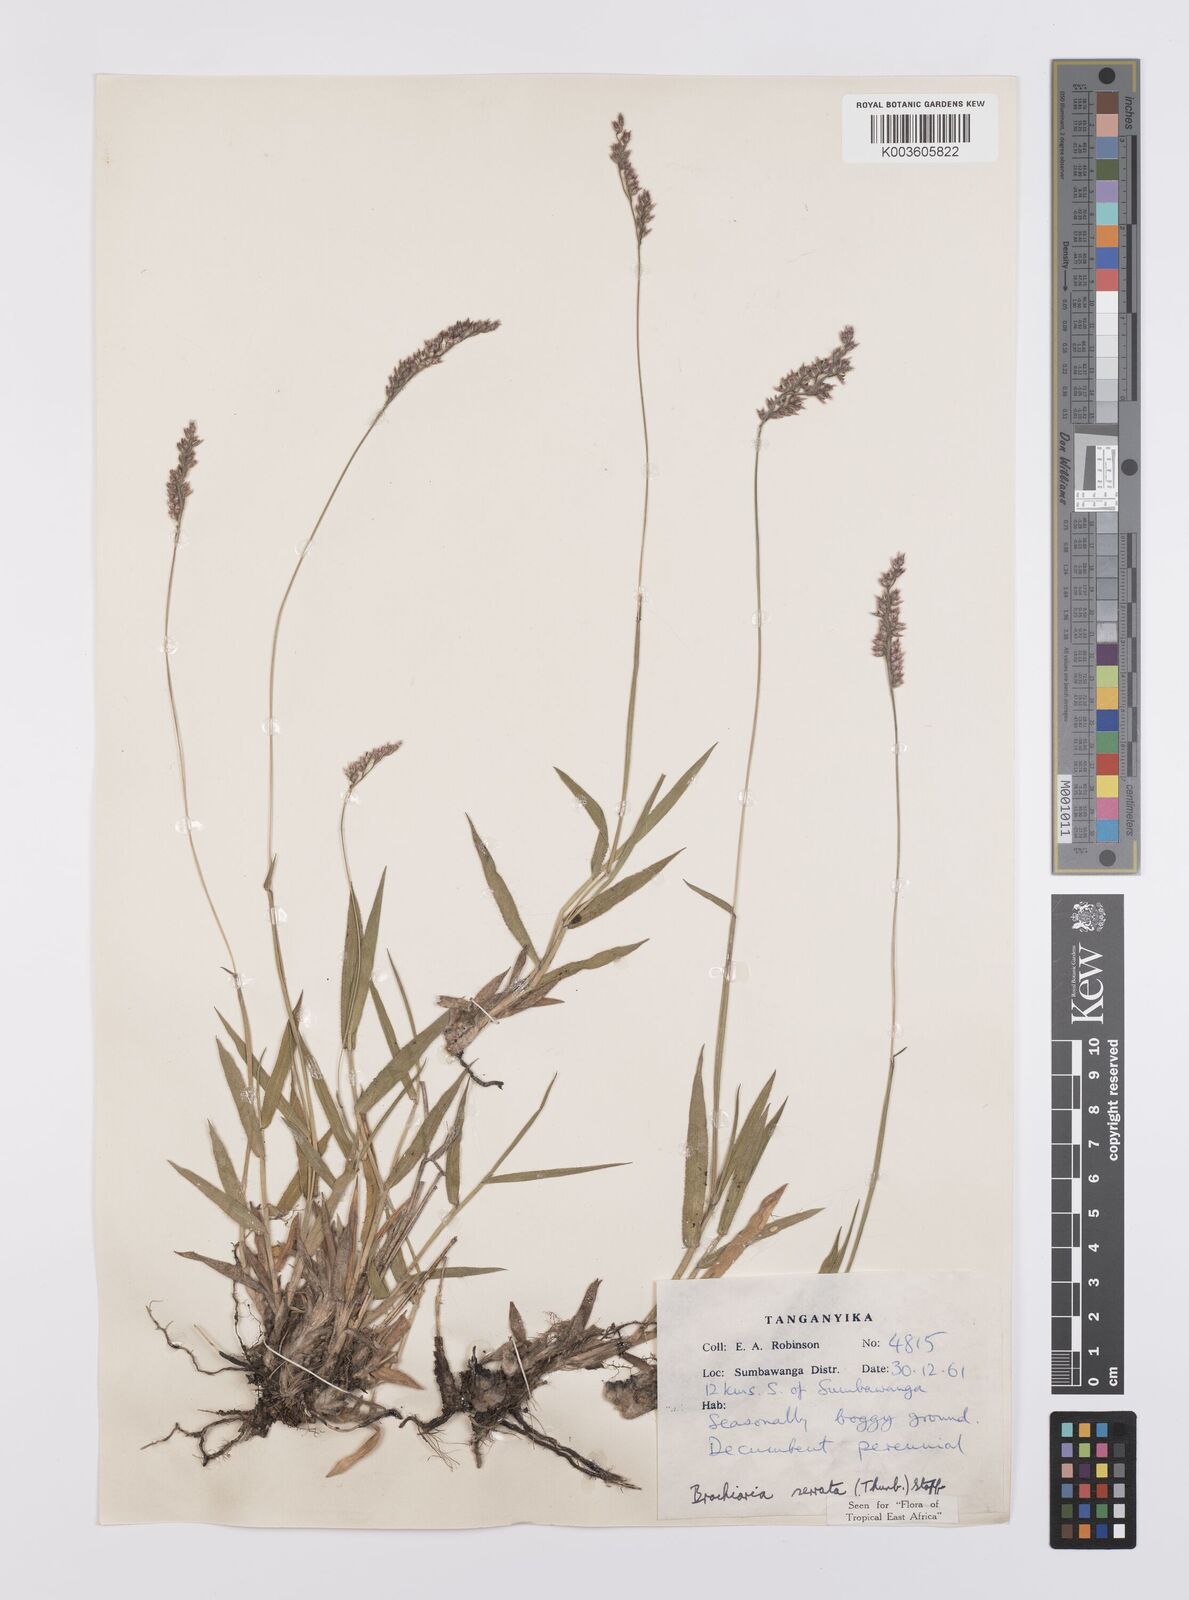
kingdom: Plantae
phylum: Tracheophyta
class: Liliopsida
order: Poales
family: Poaceae
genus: Urochloa
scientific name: Urochloa serrata
